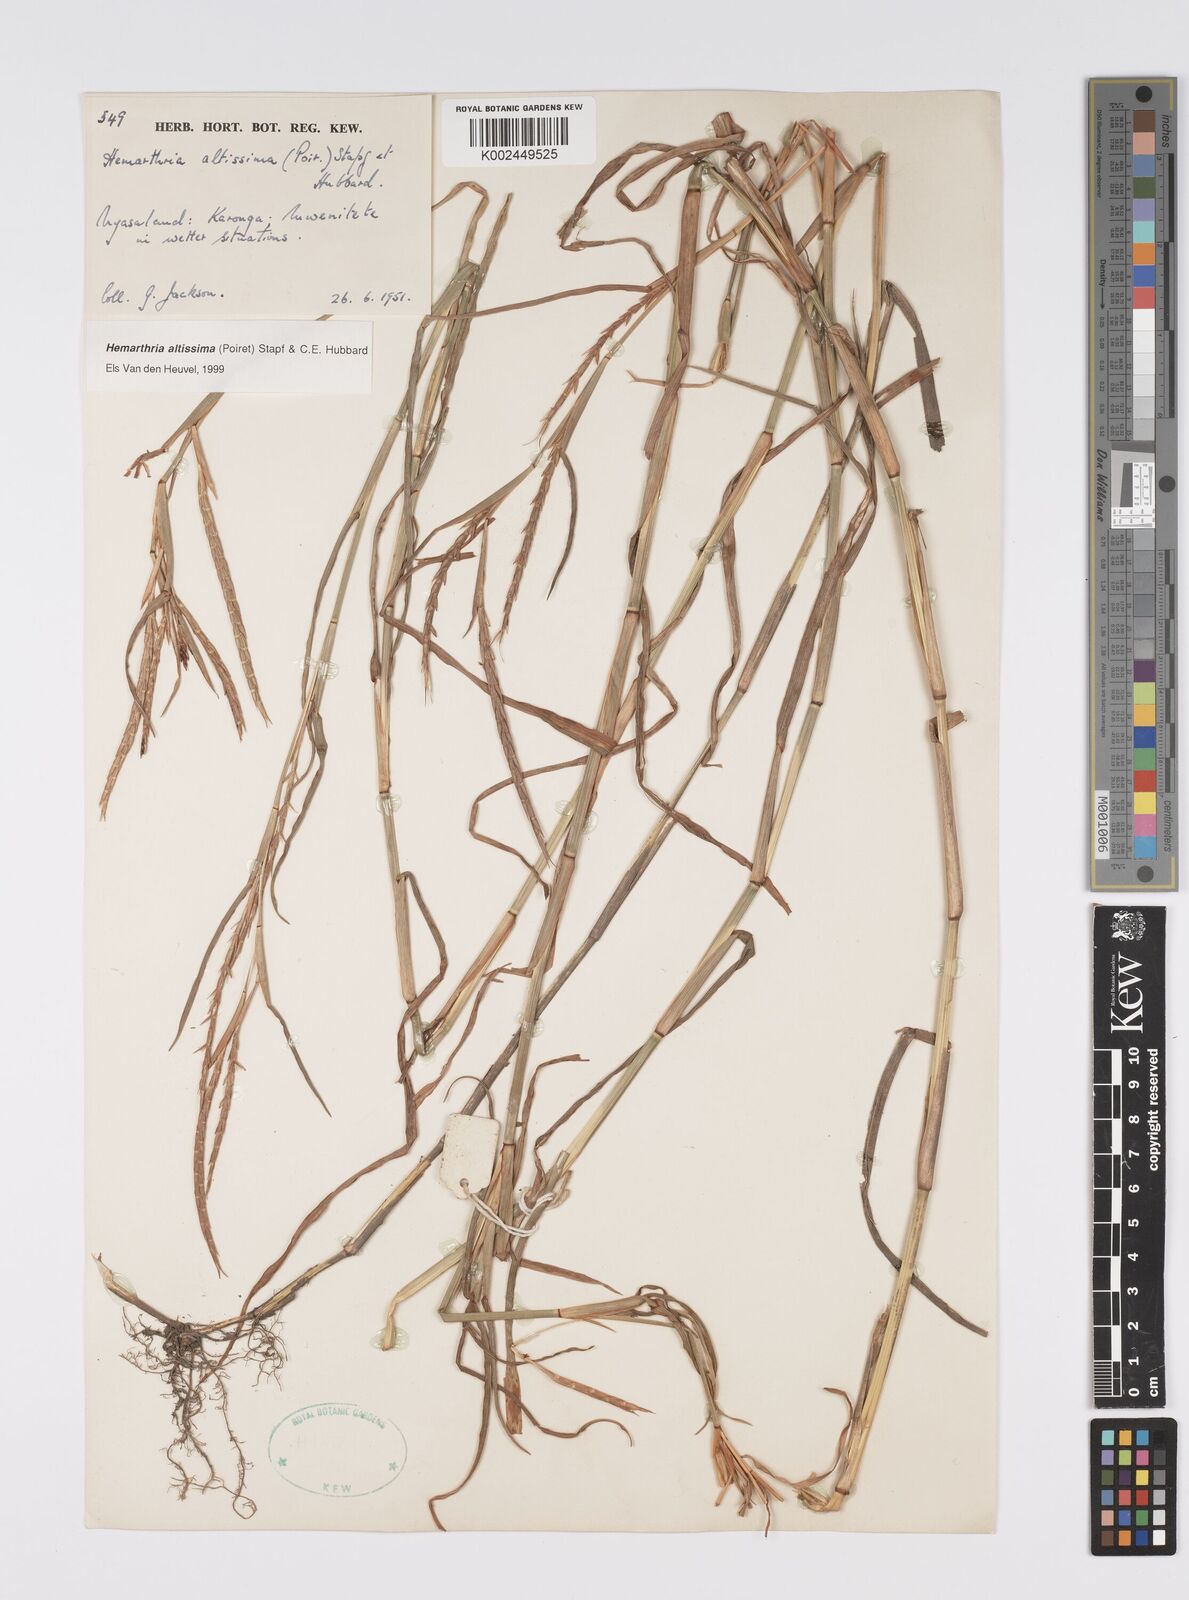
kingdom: Plantae
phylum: Tracheophyta
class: Liliopsida
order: Poales
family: Poaceae
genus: Hemarthria
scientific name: Hemarthria altissima
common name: African jointgrass
